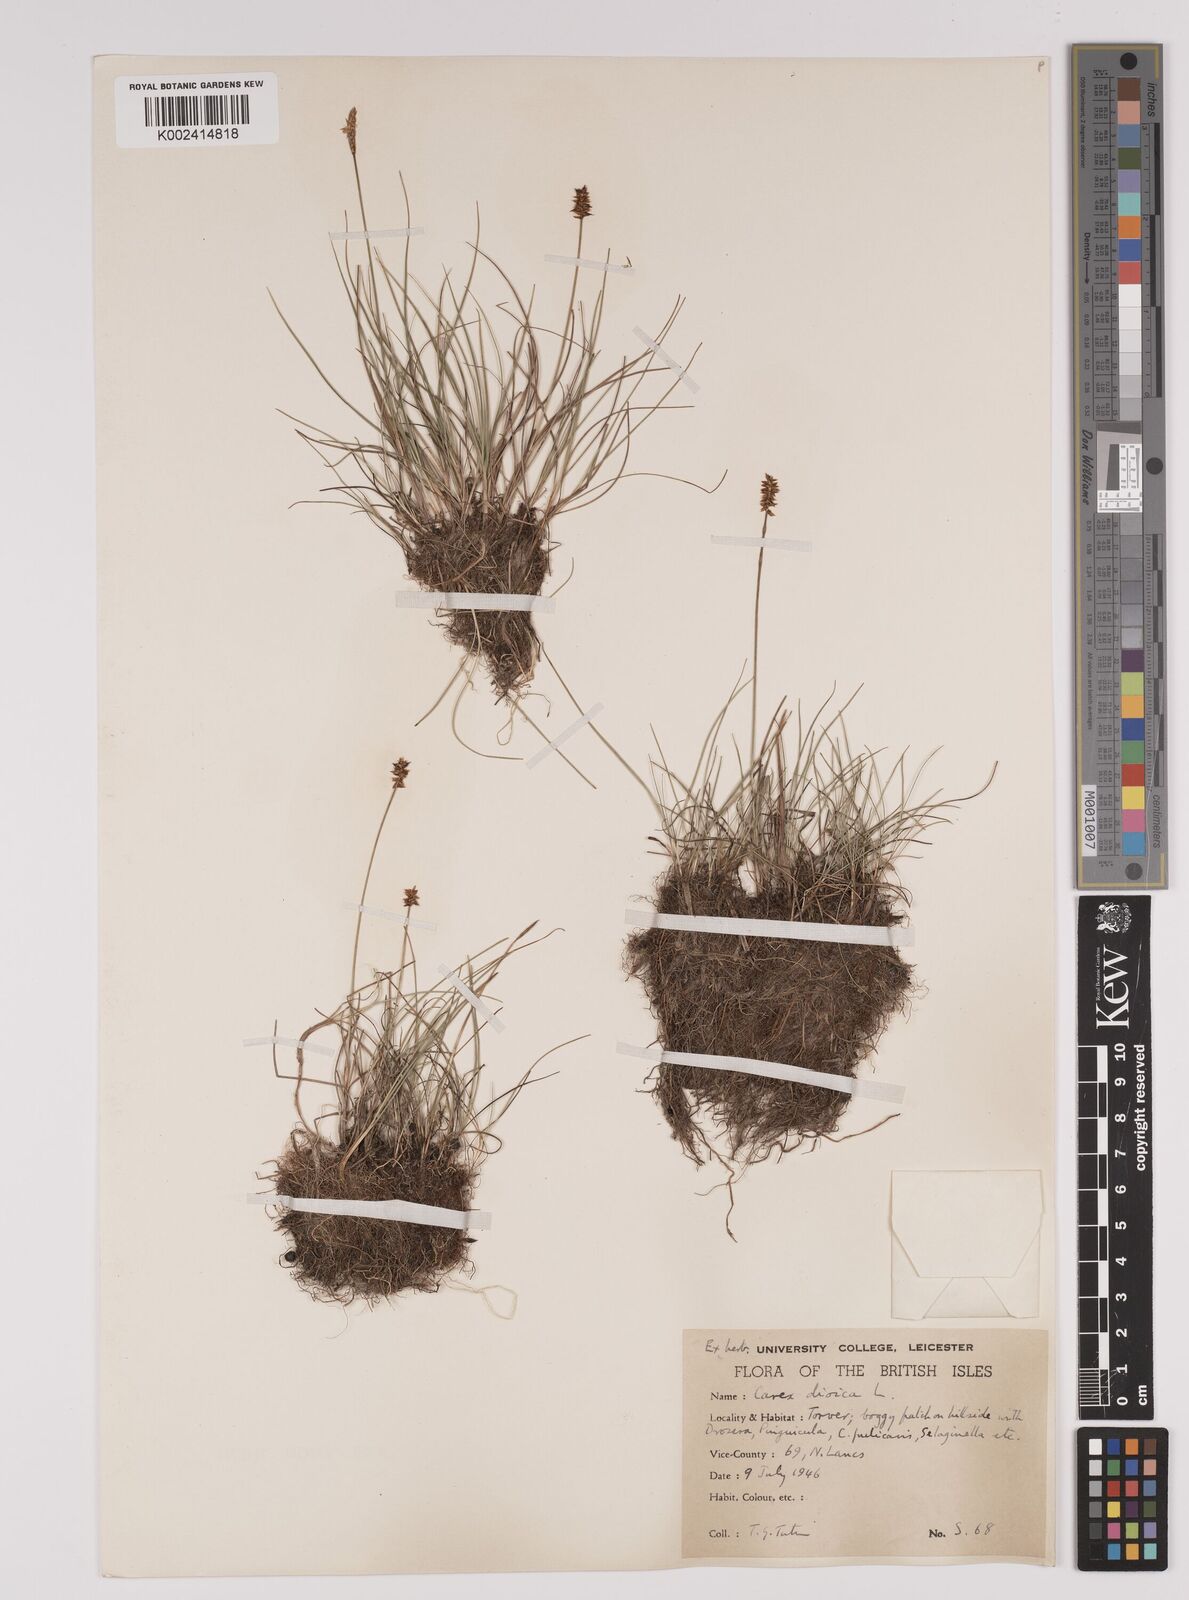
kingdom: Plantae
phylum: Tracheophyta
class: Liliopsida
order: Poales
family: Cyperaceae
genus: Carex
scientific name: Carex dioica
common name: Dioecious sedge
